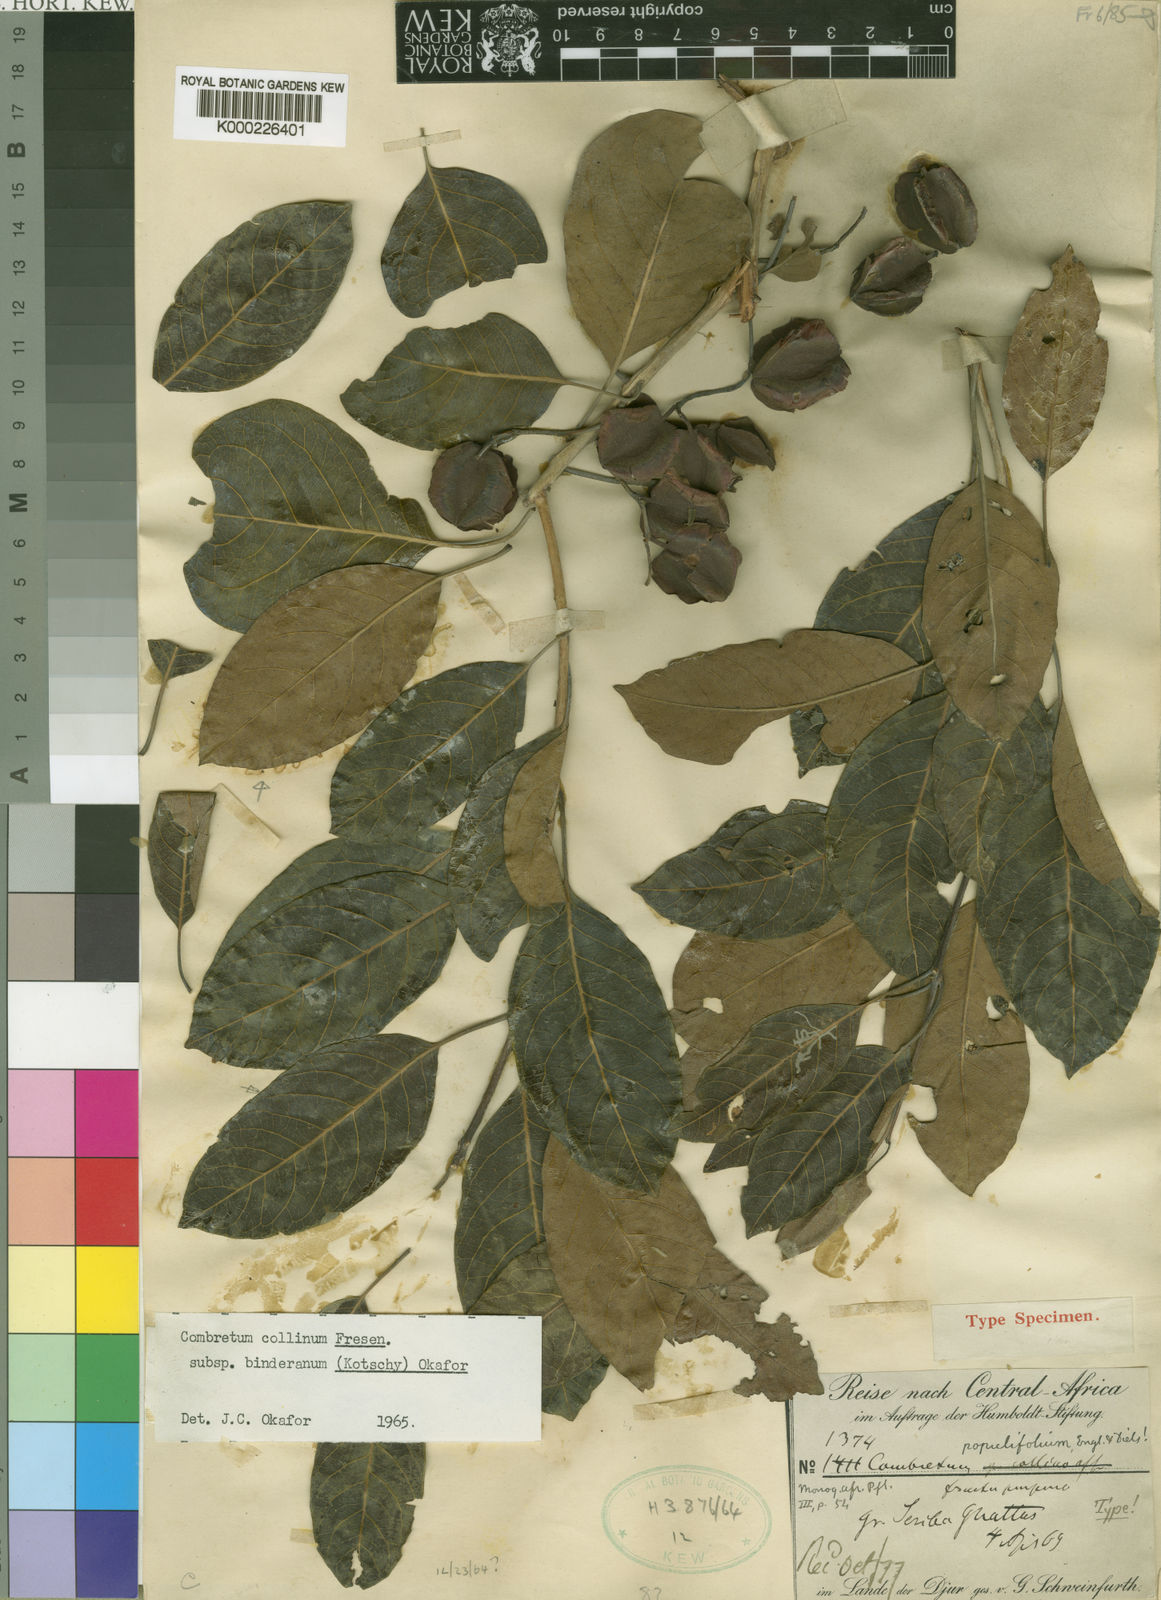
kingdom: Plantae
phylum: Tracheophyta
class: Magnoliopsida
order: Myrtales
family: Combretaceae
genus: Combretum
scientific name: Combretum collinum
